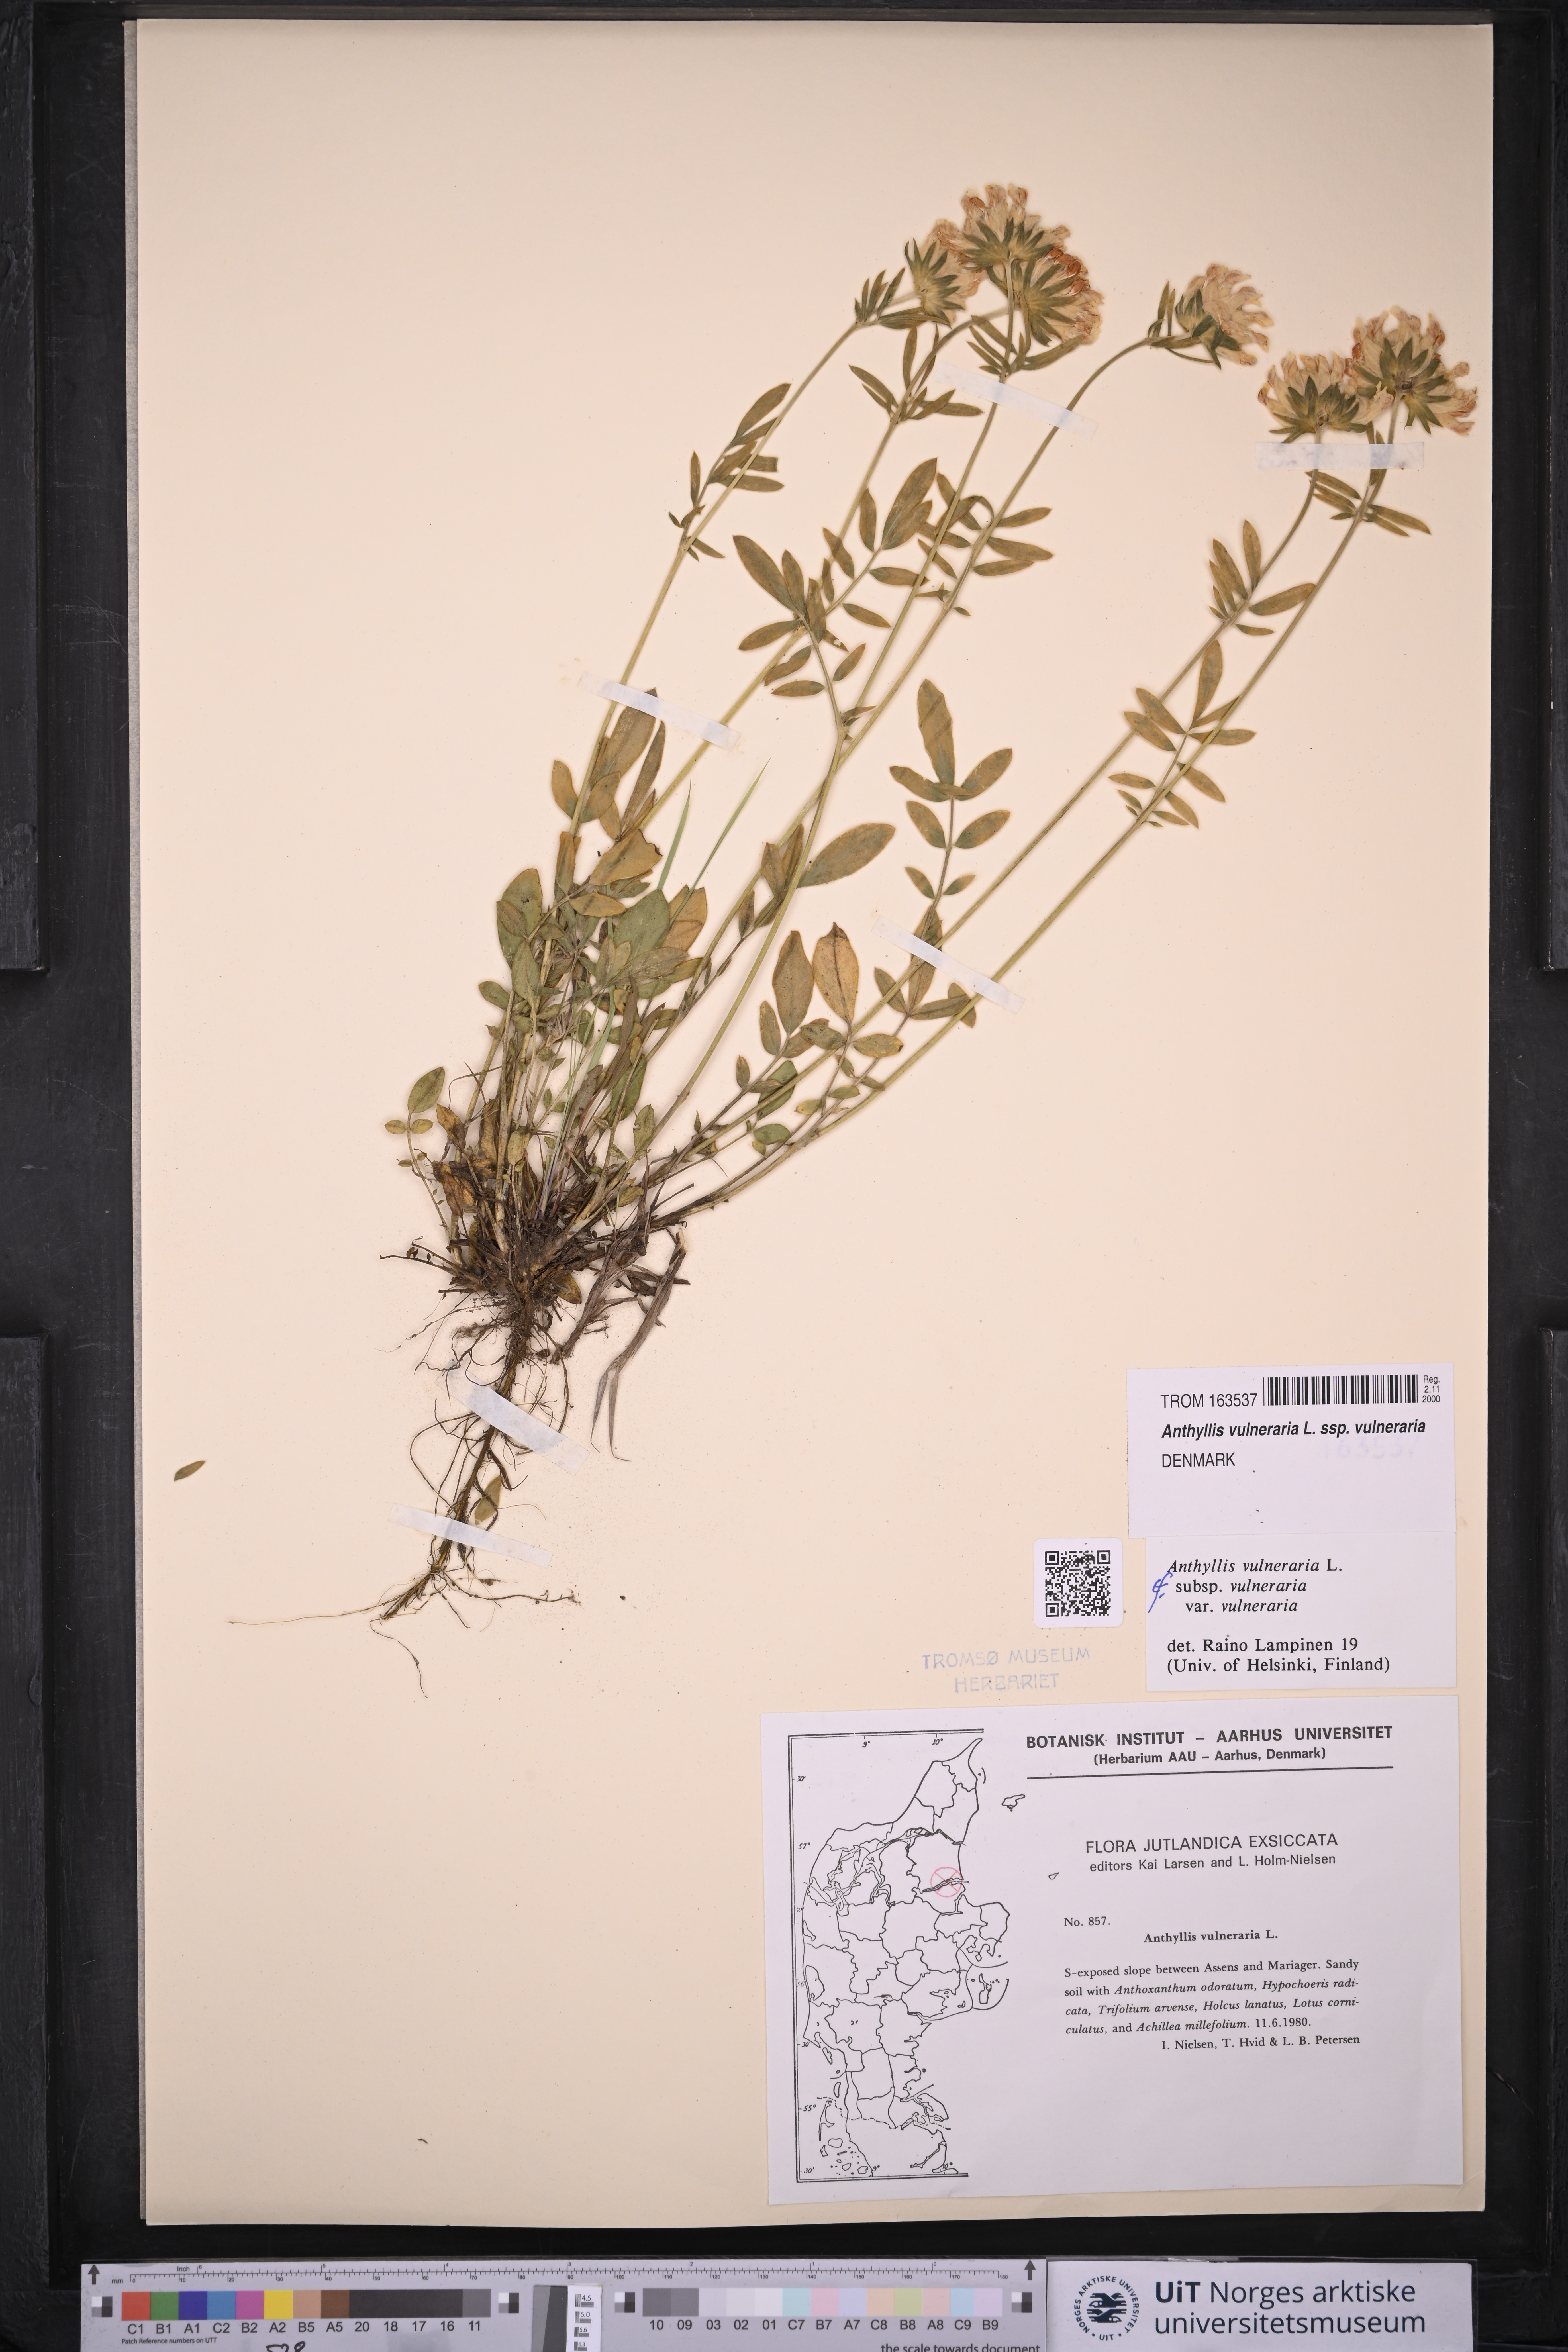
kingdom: Plantae
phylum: Tracheophyta
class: Magnoliopsida
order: Fabales
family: Fabaceae
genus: Anthyllis
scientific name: Anthyllis vulneraria
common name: Kidney vetch
